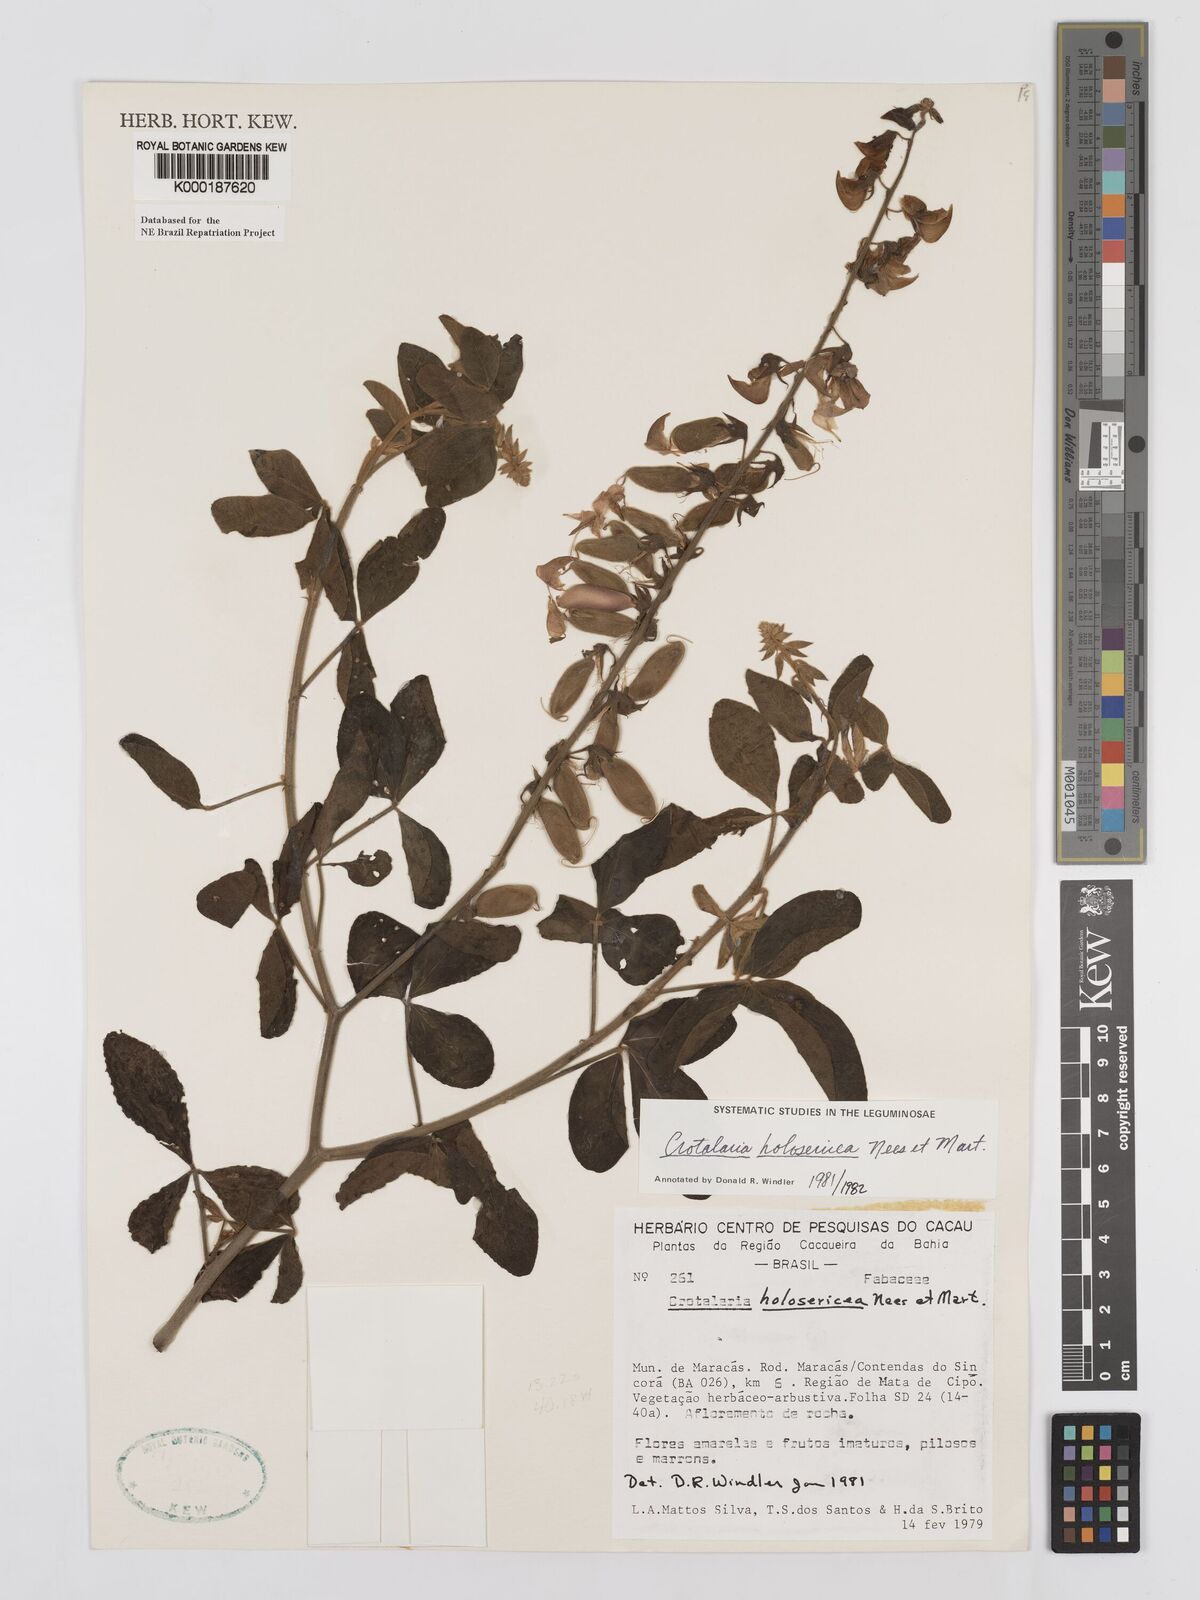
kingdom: Plantae
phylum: Tracheophyta
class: Magnoliopsida
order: Fabales
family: Fabaceae
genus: Crotalaria
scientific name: Crotalaria holosericea
